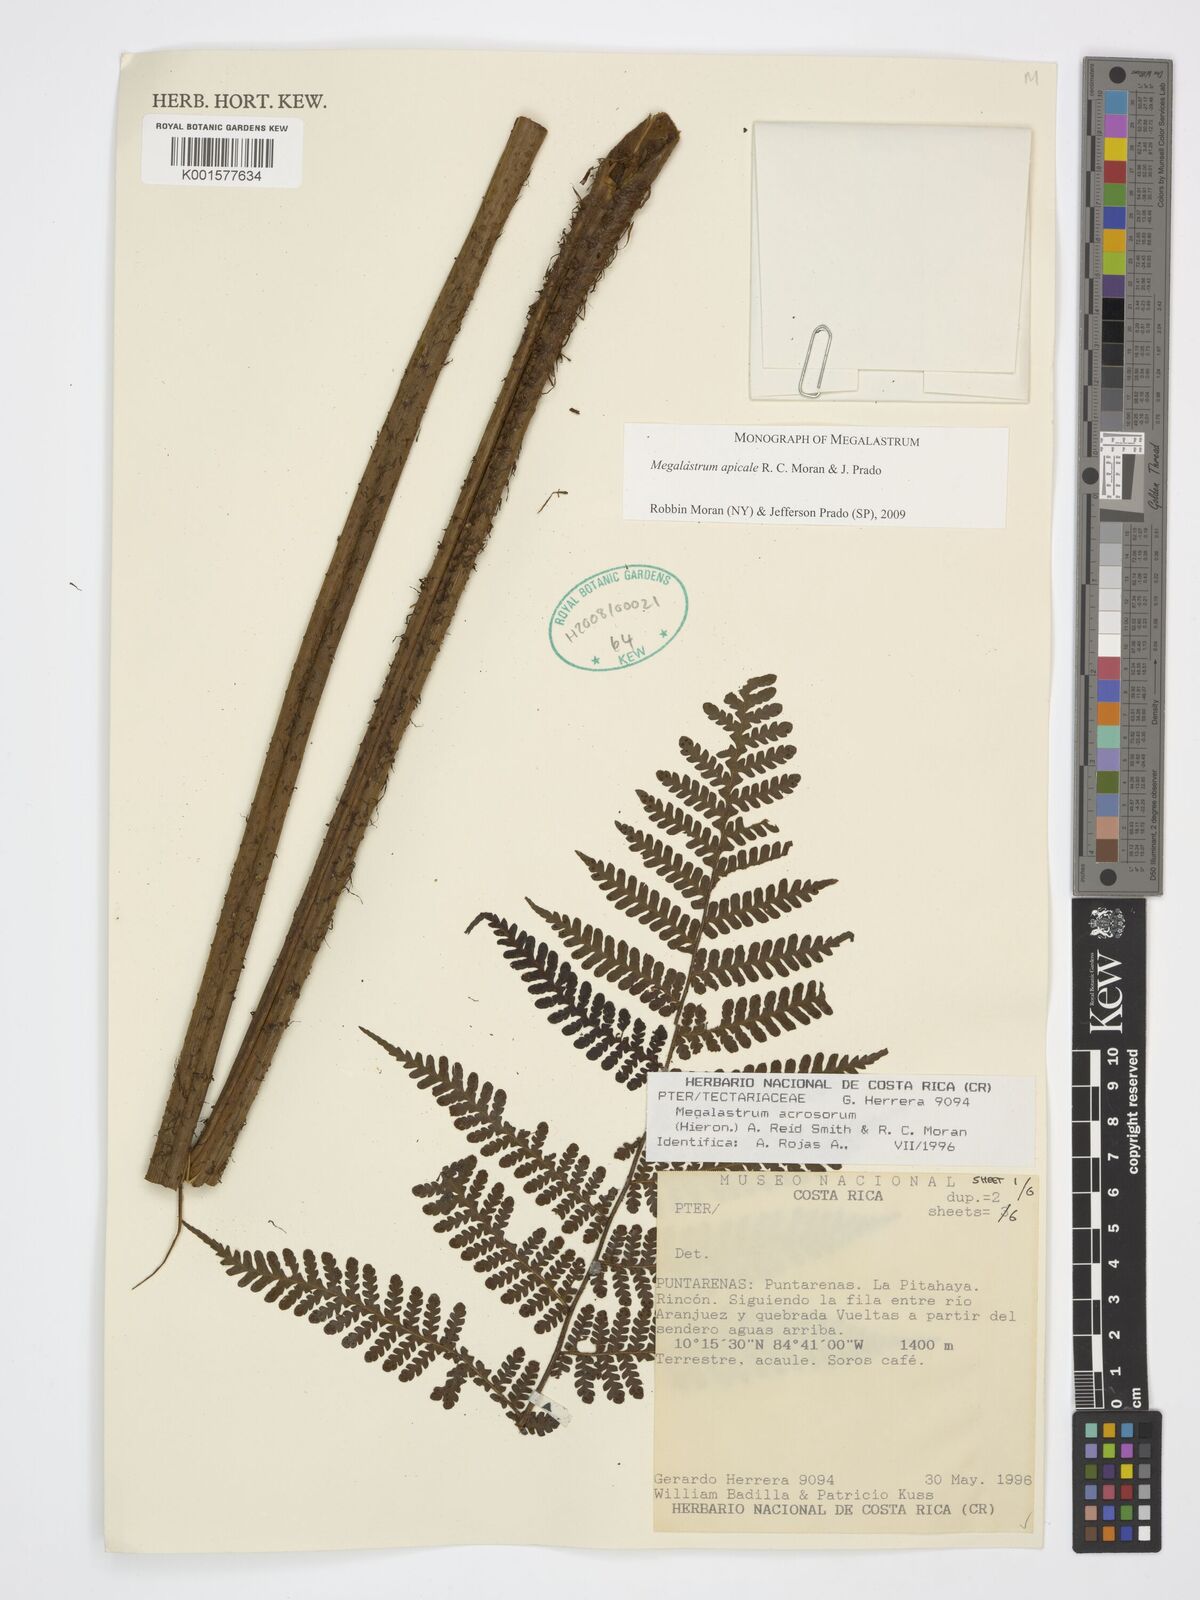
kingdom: Plantae
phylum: Tracheophyta
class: Polypodiopsida
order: Polypodiales
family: Dryopteridaceae
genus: Megalastrum
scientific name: Megalastrum apicale
